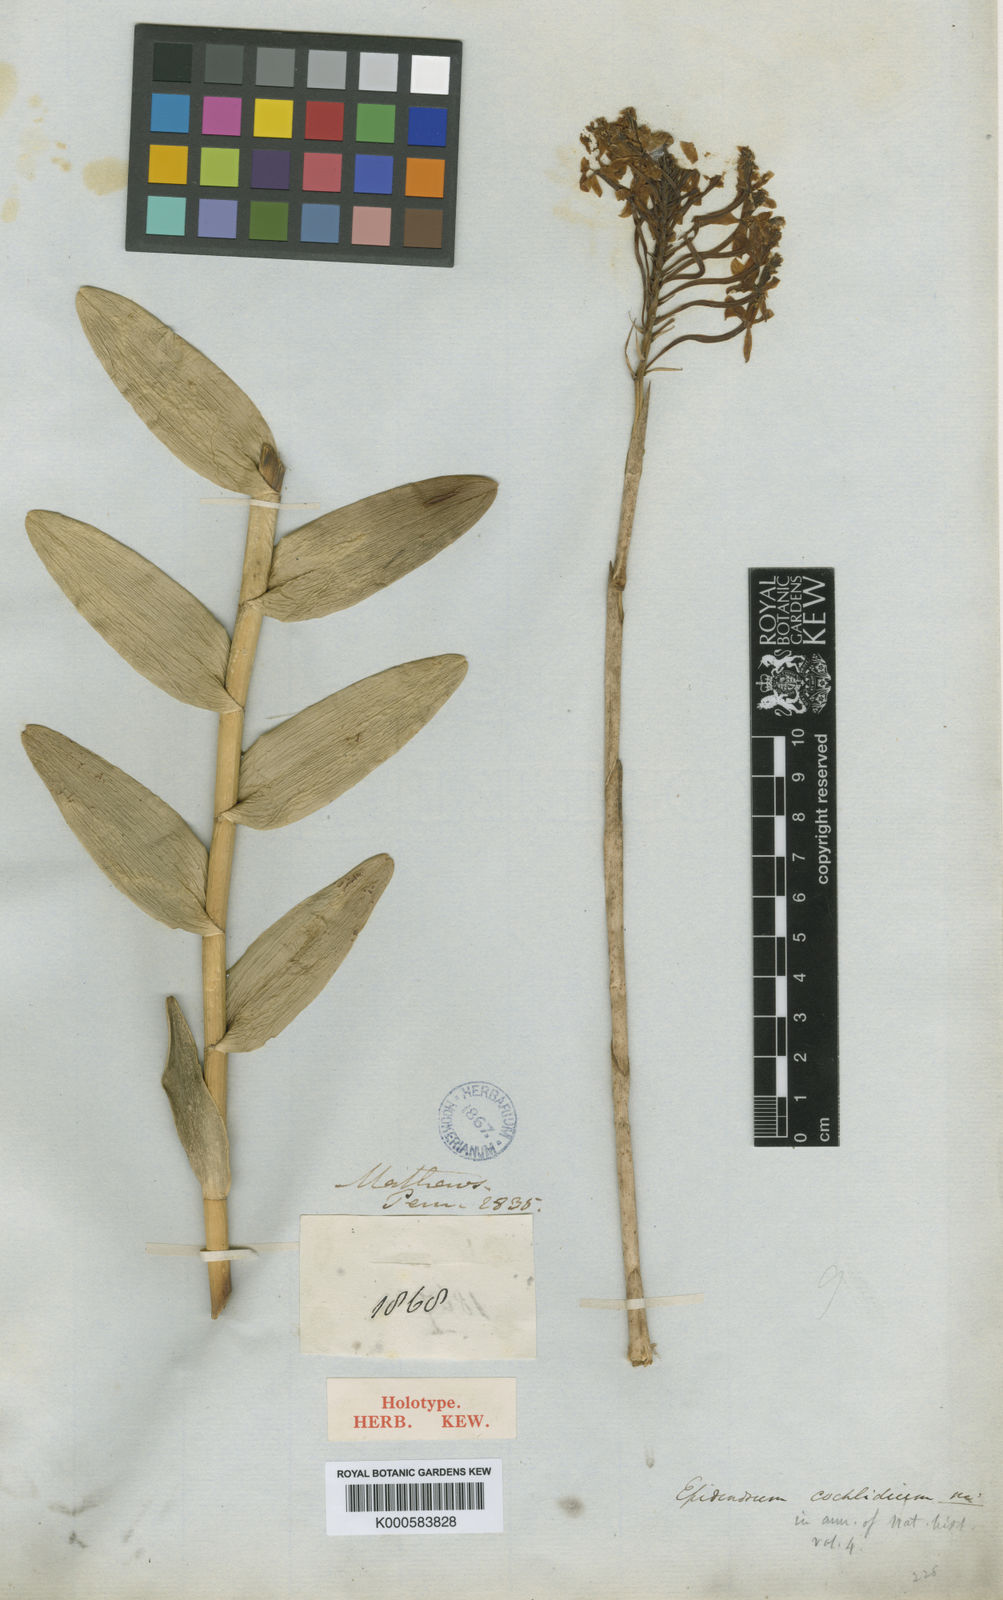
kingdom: Plantae
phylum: Tracheophyta
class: Liliopsida
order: Asparagales
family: Orchidaceae
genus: Epidendrum
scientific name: Epidendrum cochlidium
